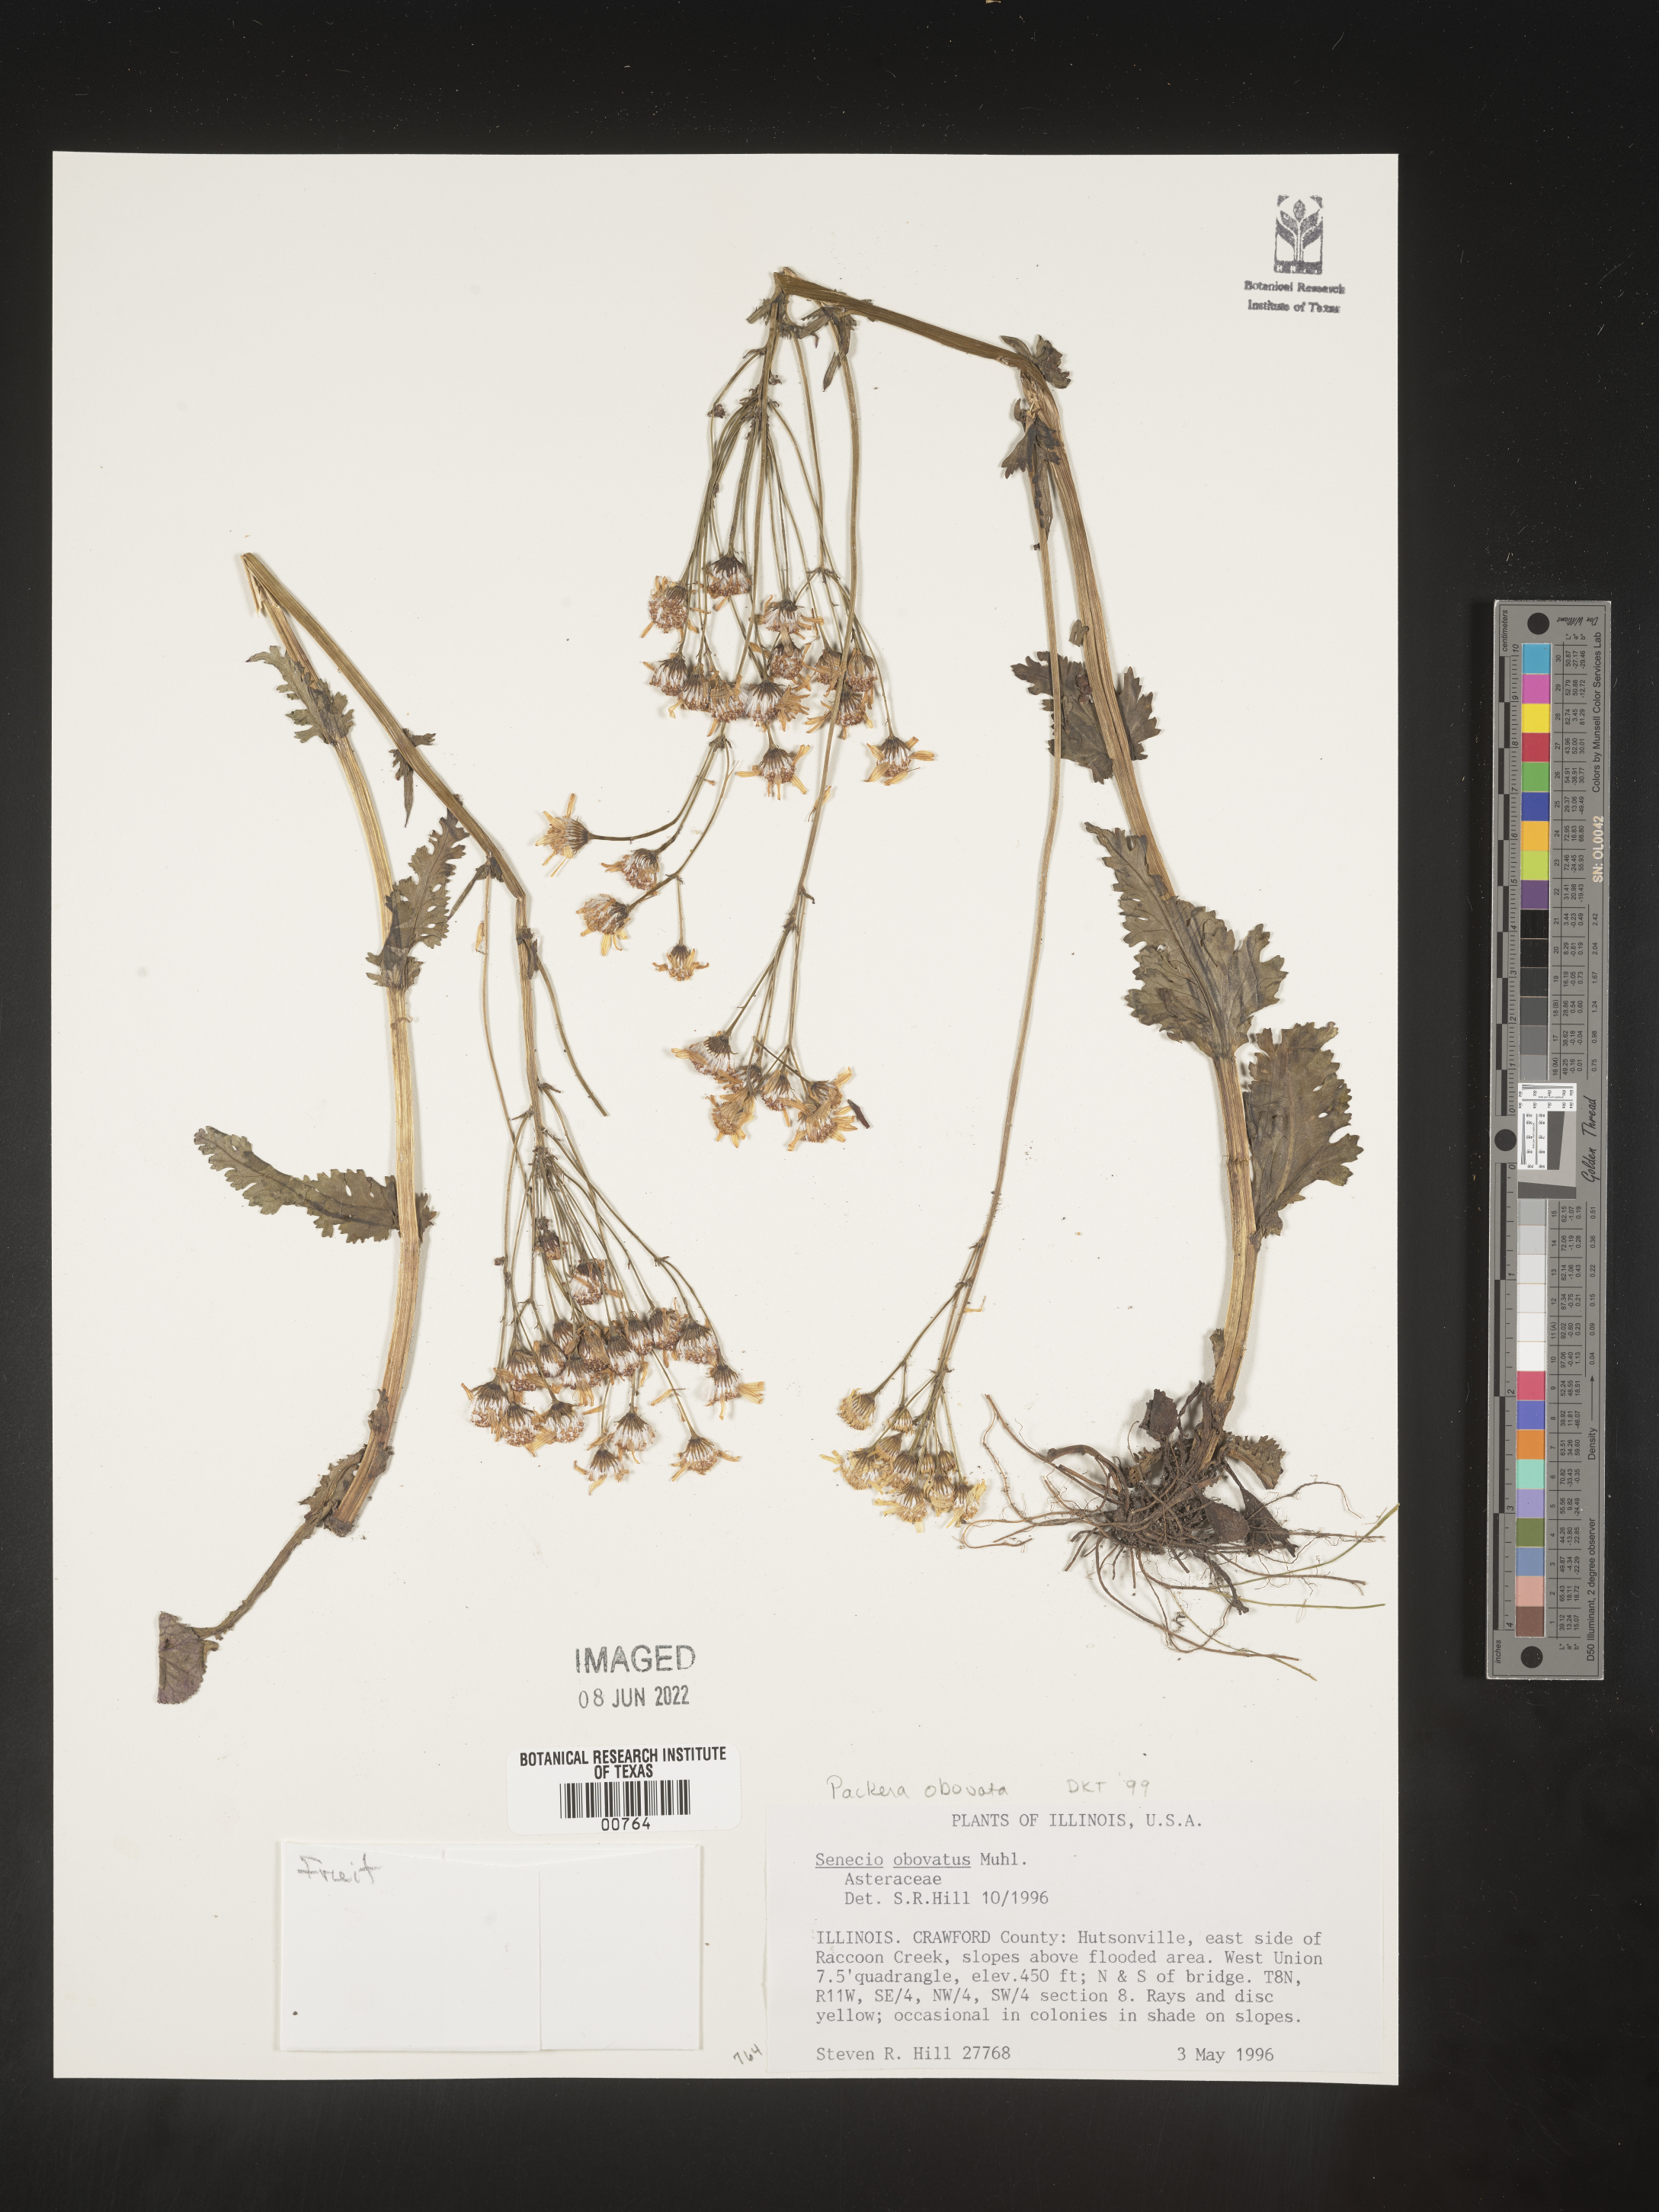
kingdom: Plantae
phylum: Tracheophyta
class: Magnoliopsida
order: Asterales
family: Asteraceae
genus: Packera
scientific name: Packera obovata
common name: Round-leaf ragwort
